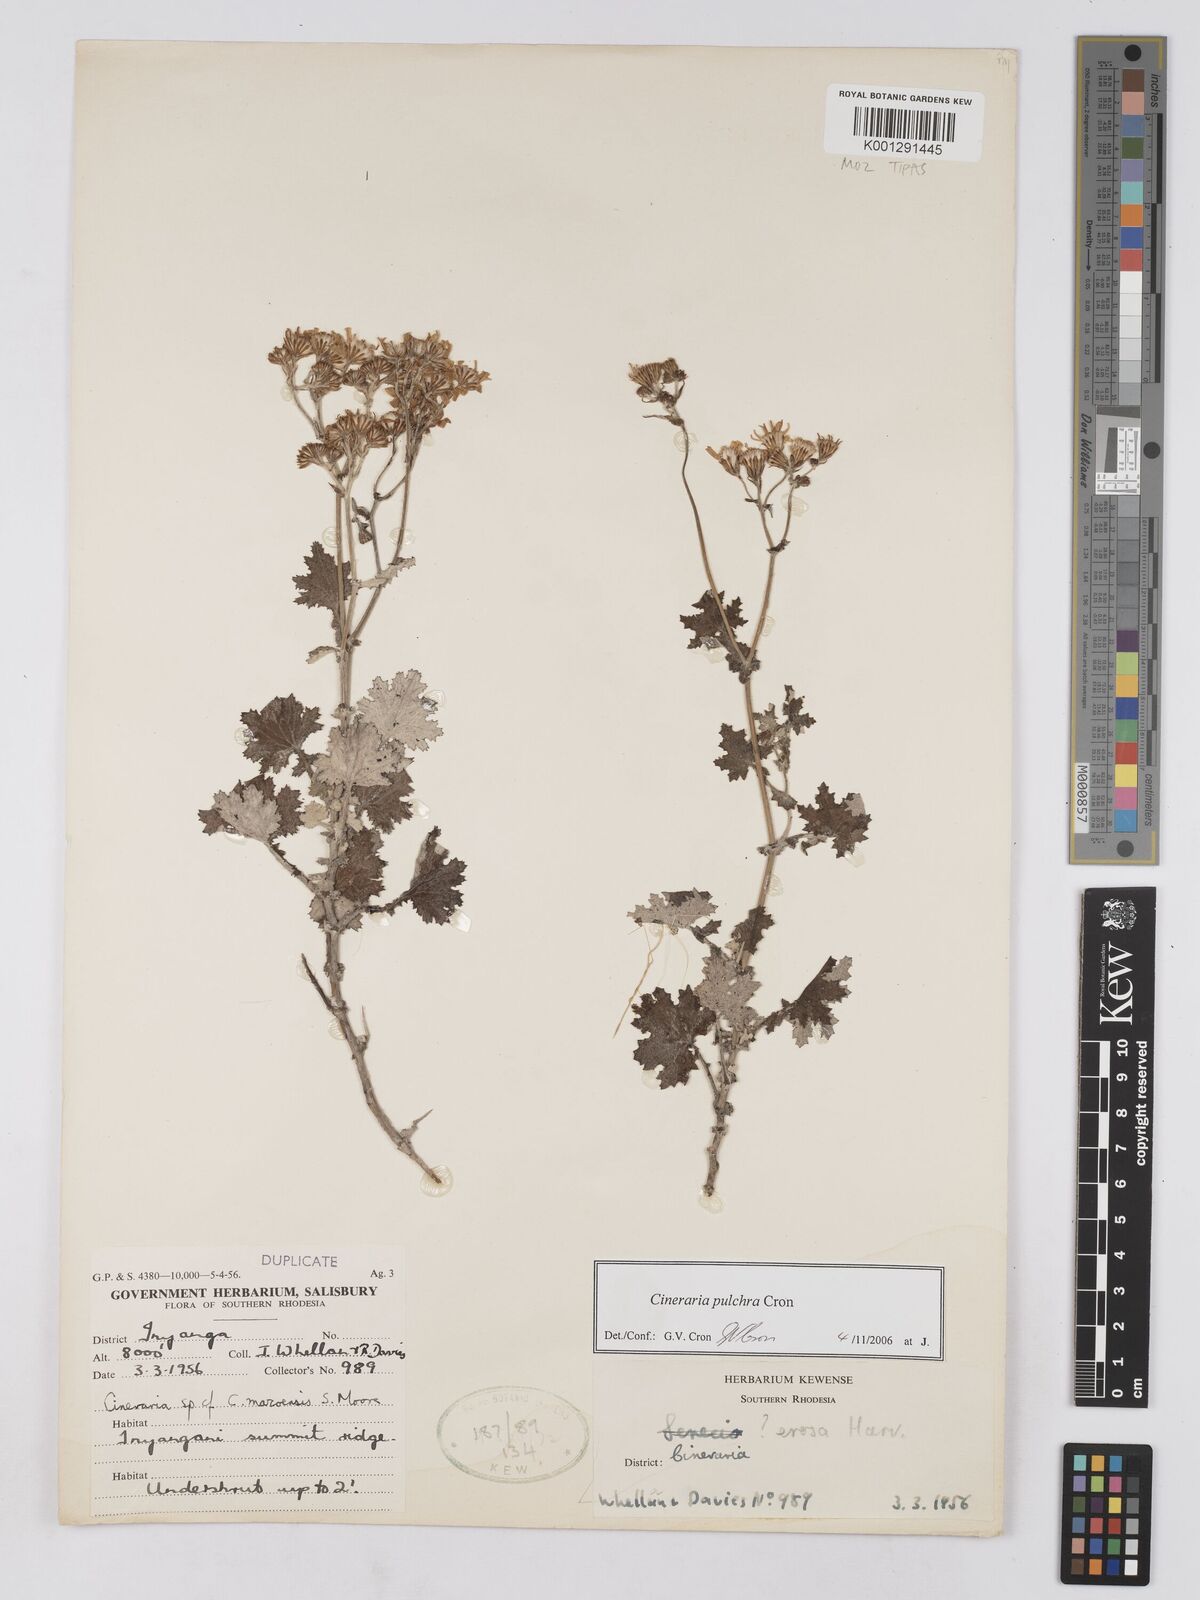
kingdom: Plantae
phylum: Tracheophyta
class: Magnoliopsida
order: Asterales
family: Asteraceae
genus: Cineraria
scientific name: Cineraria pulchra
